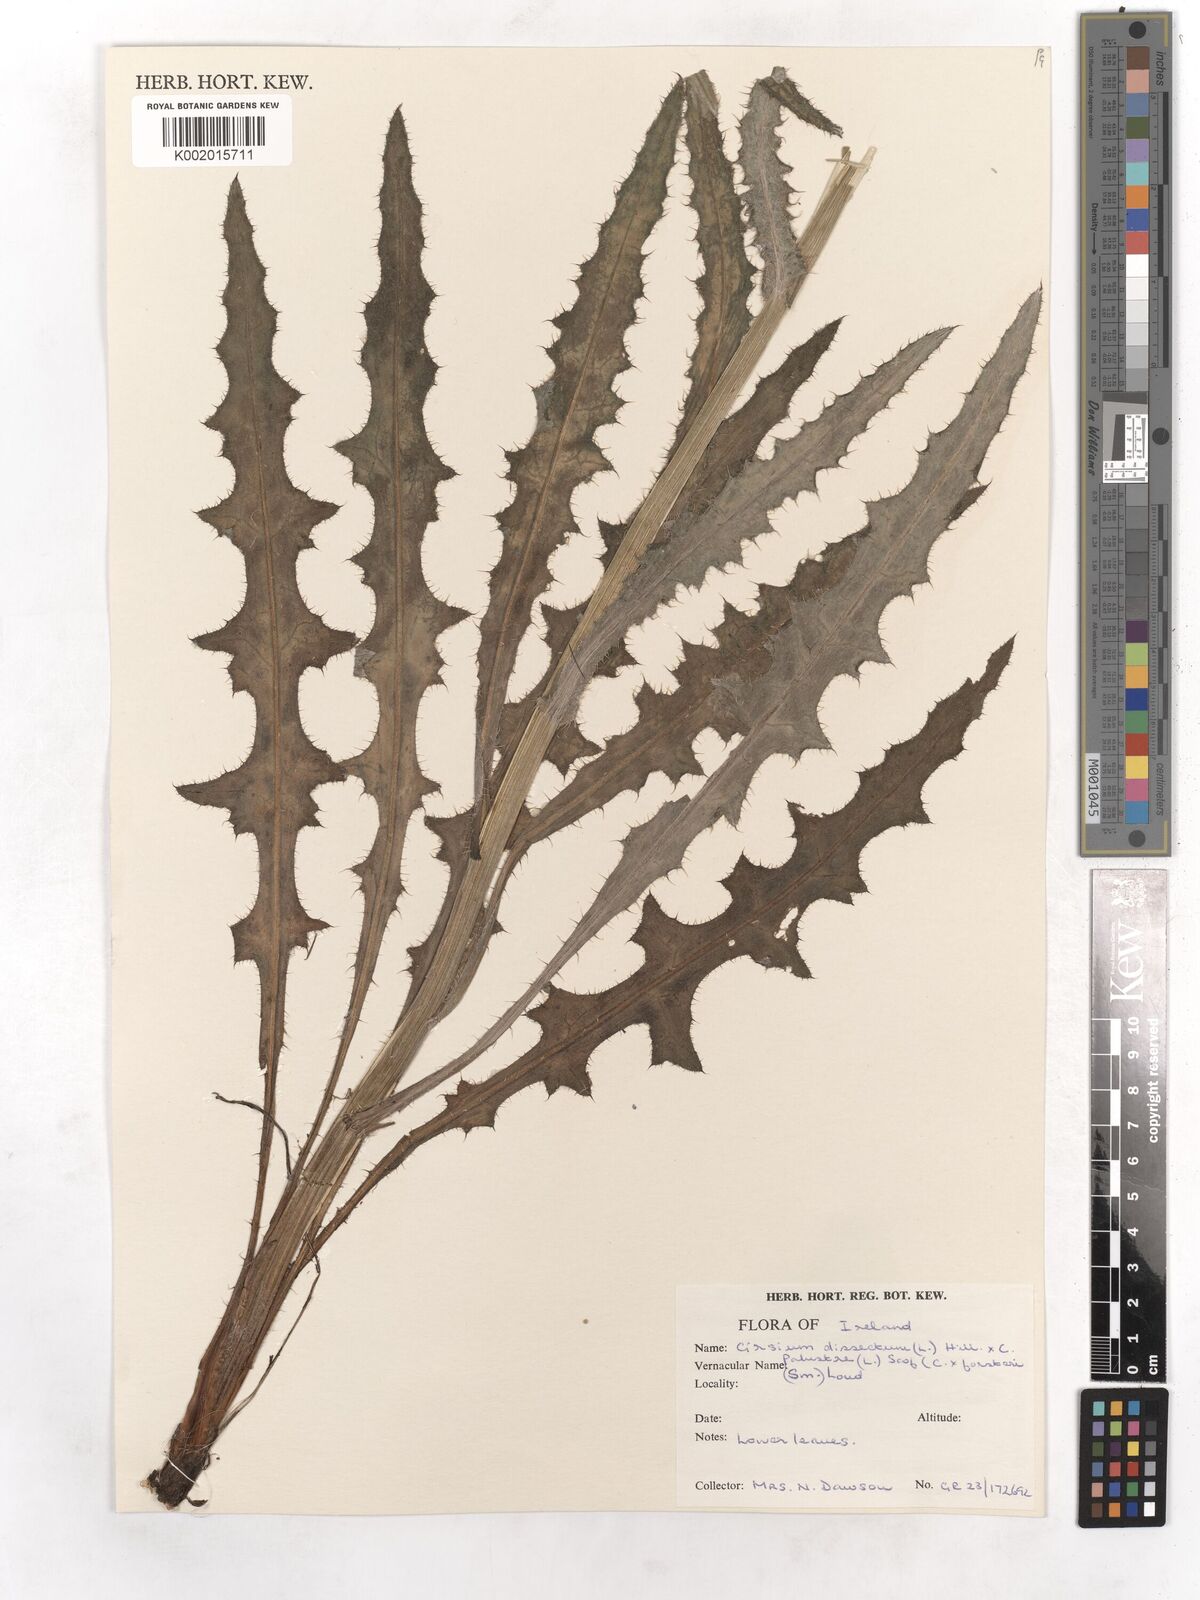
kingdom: Plantae
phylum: Tracheophyta
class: Magnoliopsida
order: Asterales
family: Asteraceae
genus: Cirsium
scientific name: Cirsium dissectum
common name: Meadow thistle
